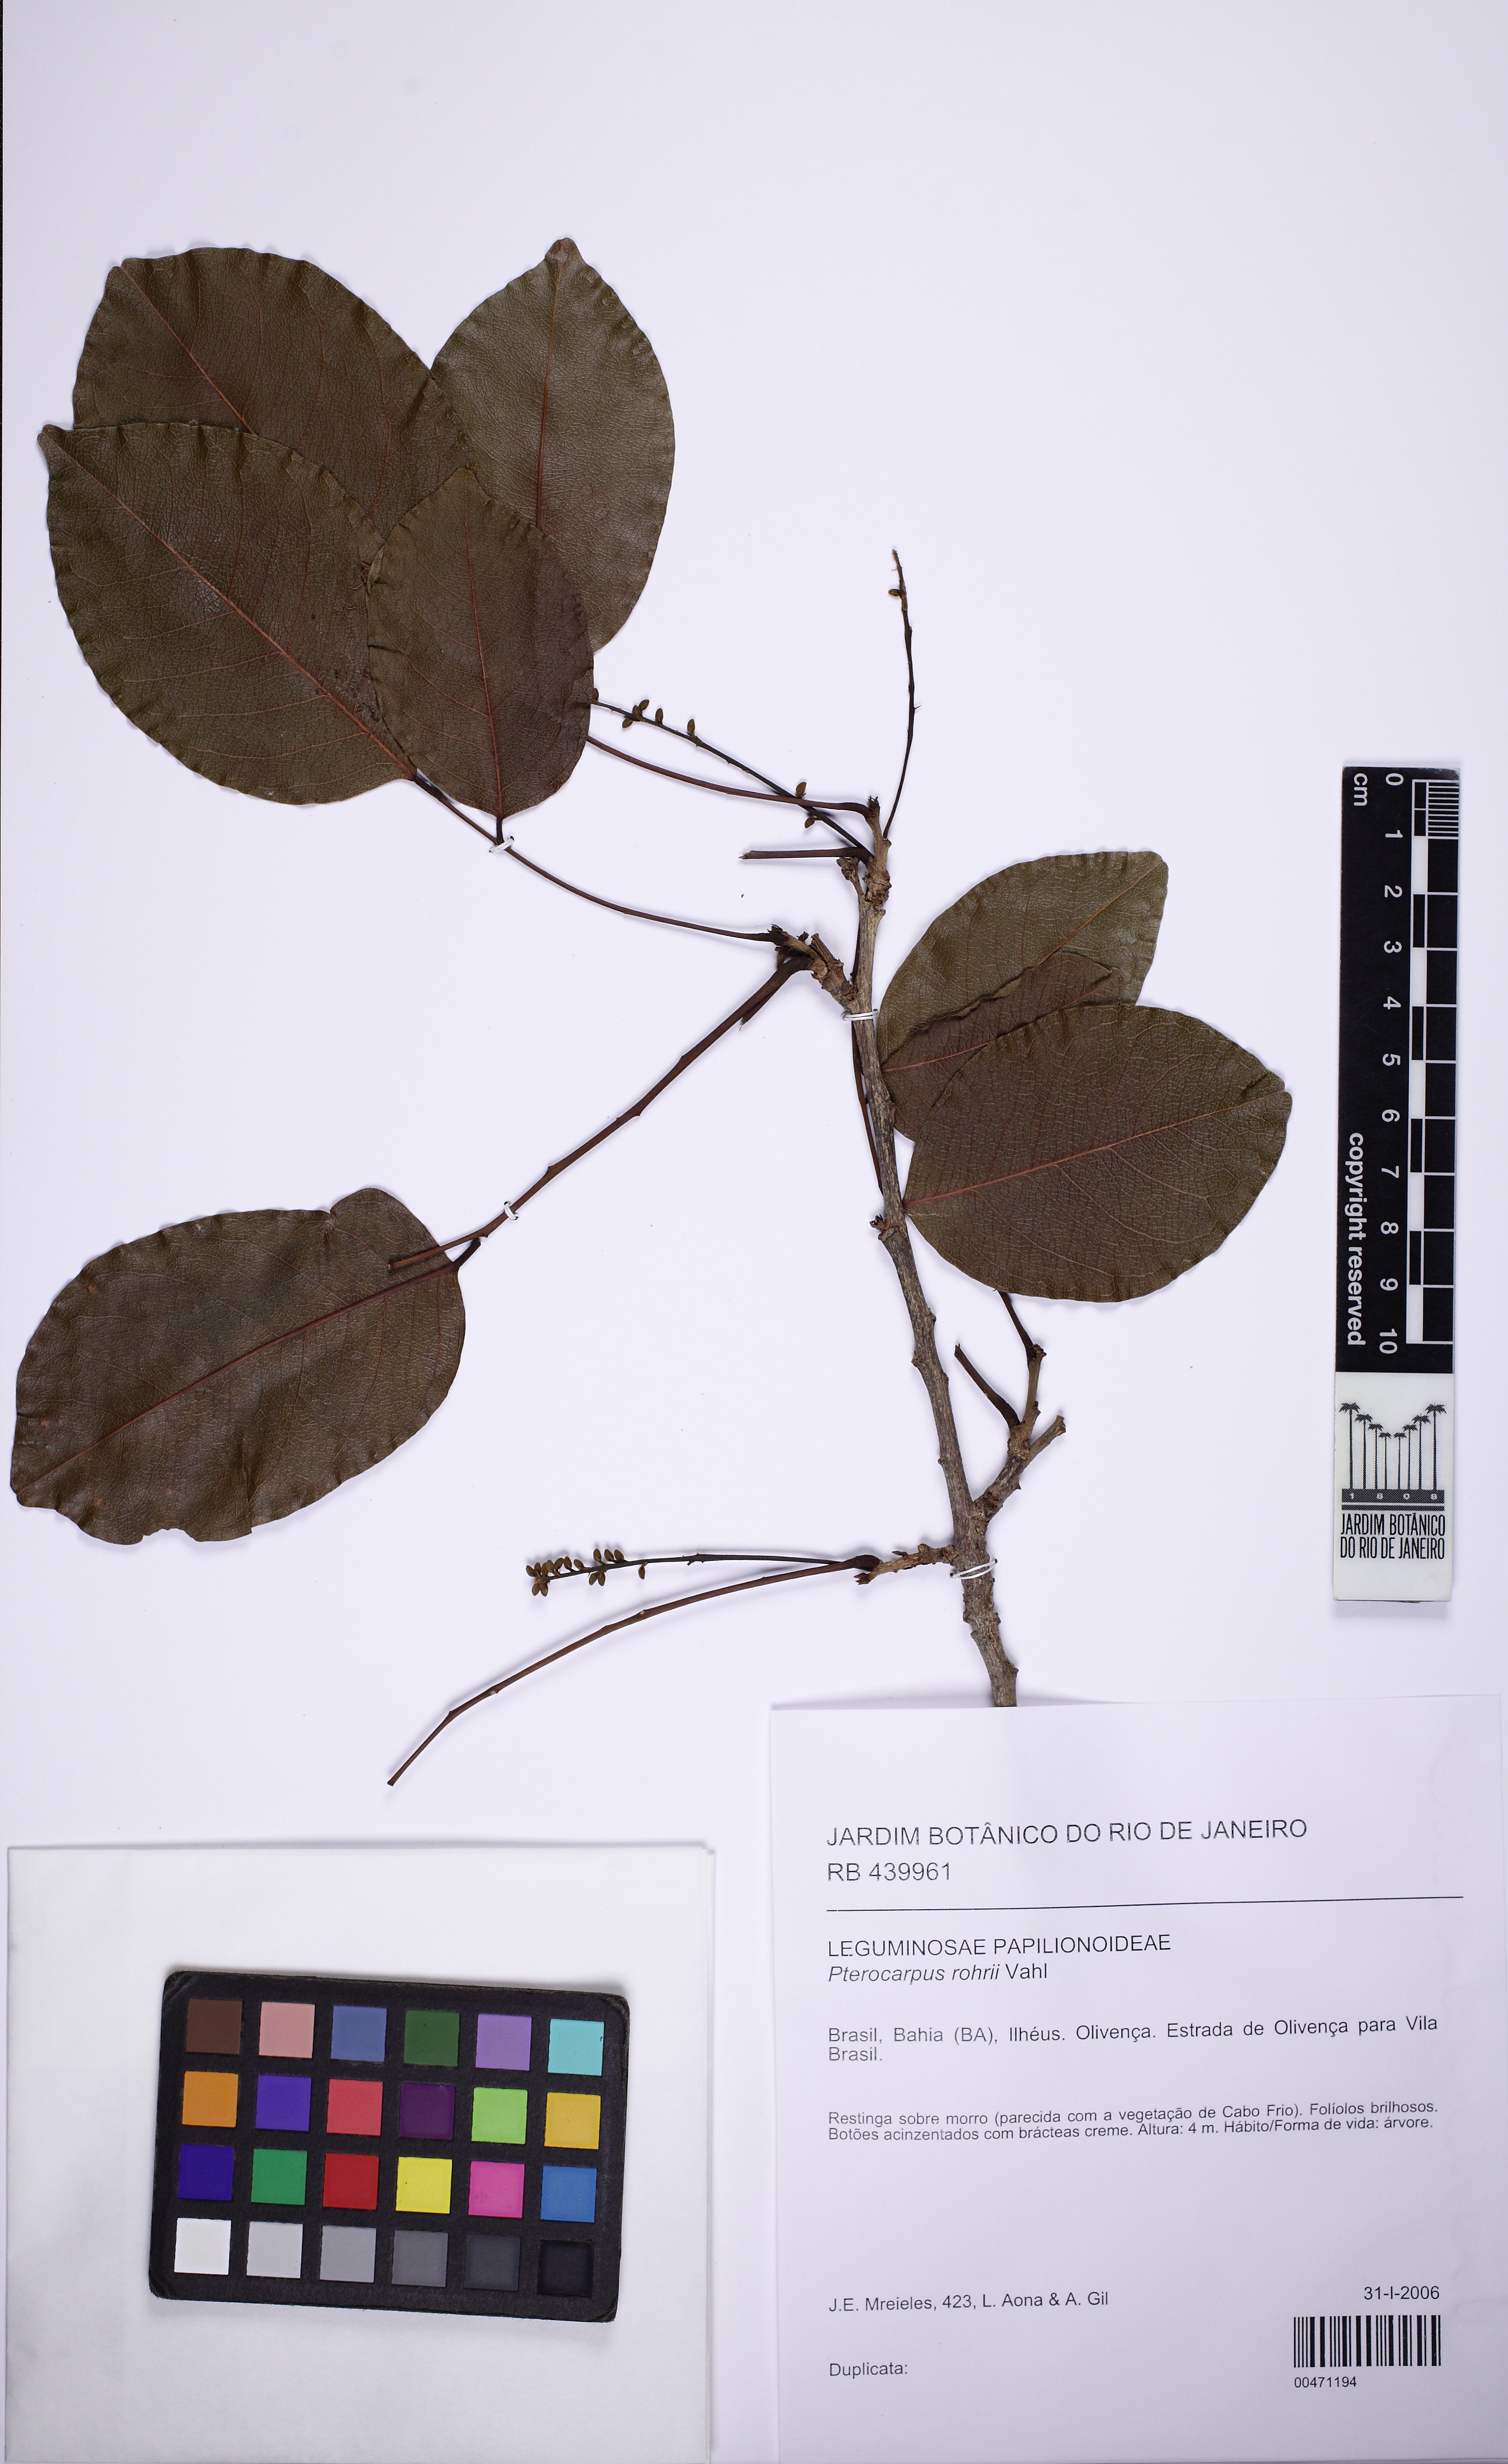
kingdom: Plantae
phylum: Tracheophyta
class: Magnoliopsida
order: Fabales
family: Fabaceae
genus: Pterocarpus
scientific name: Pterocarpus rohrii
